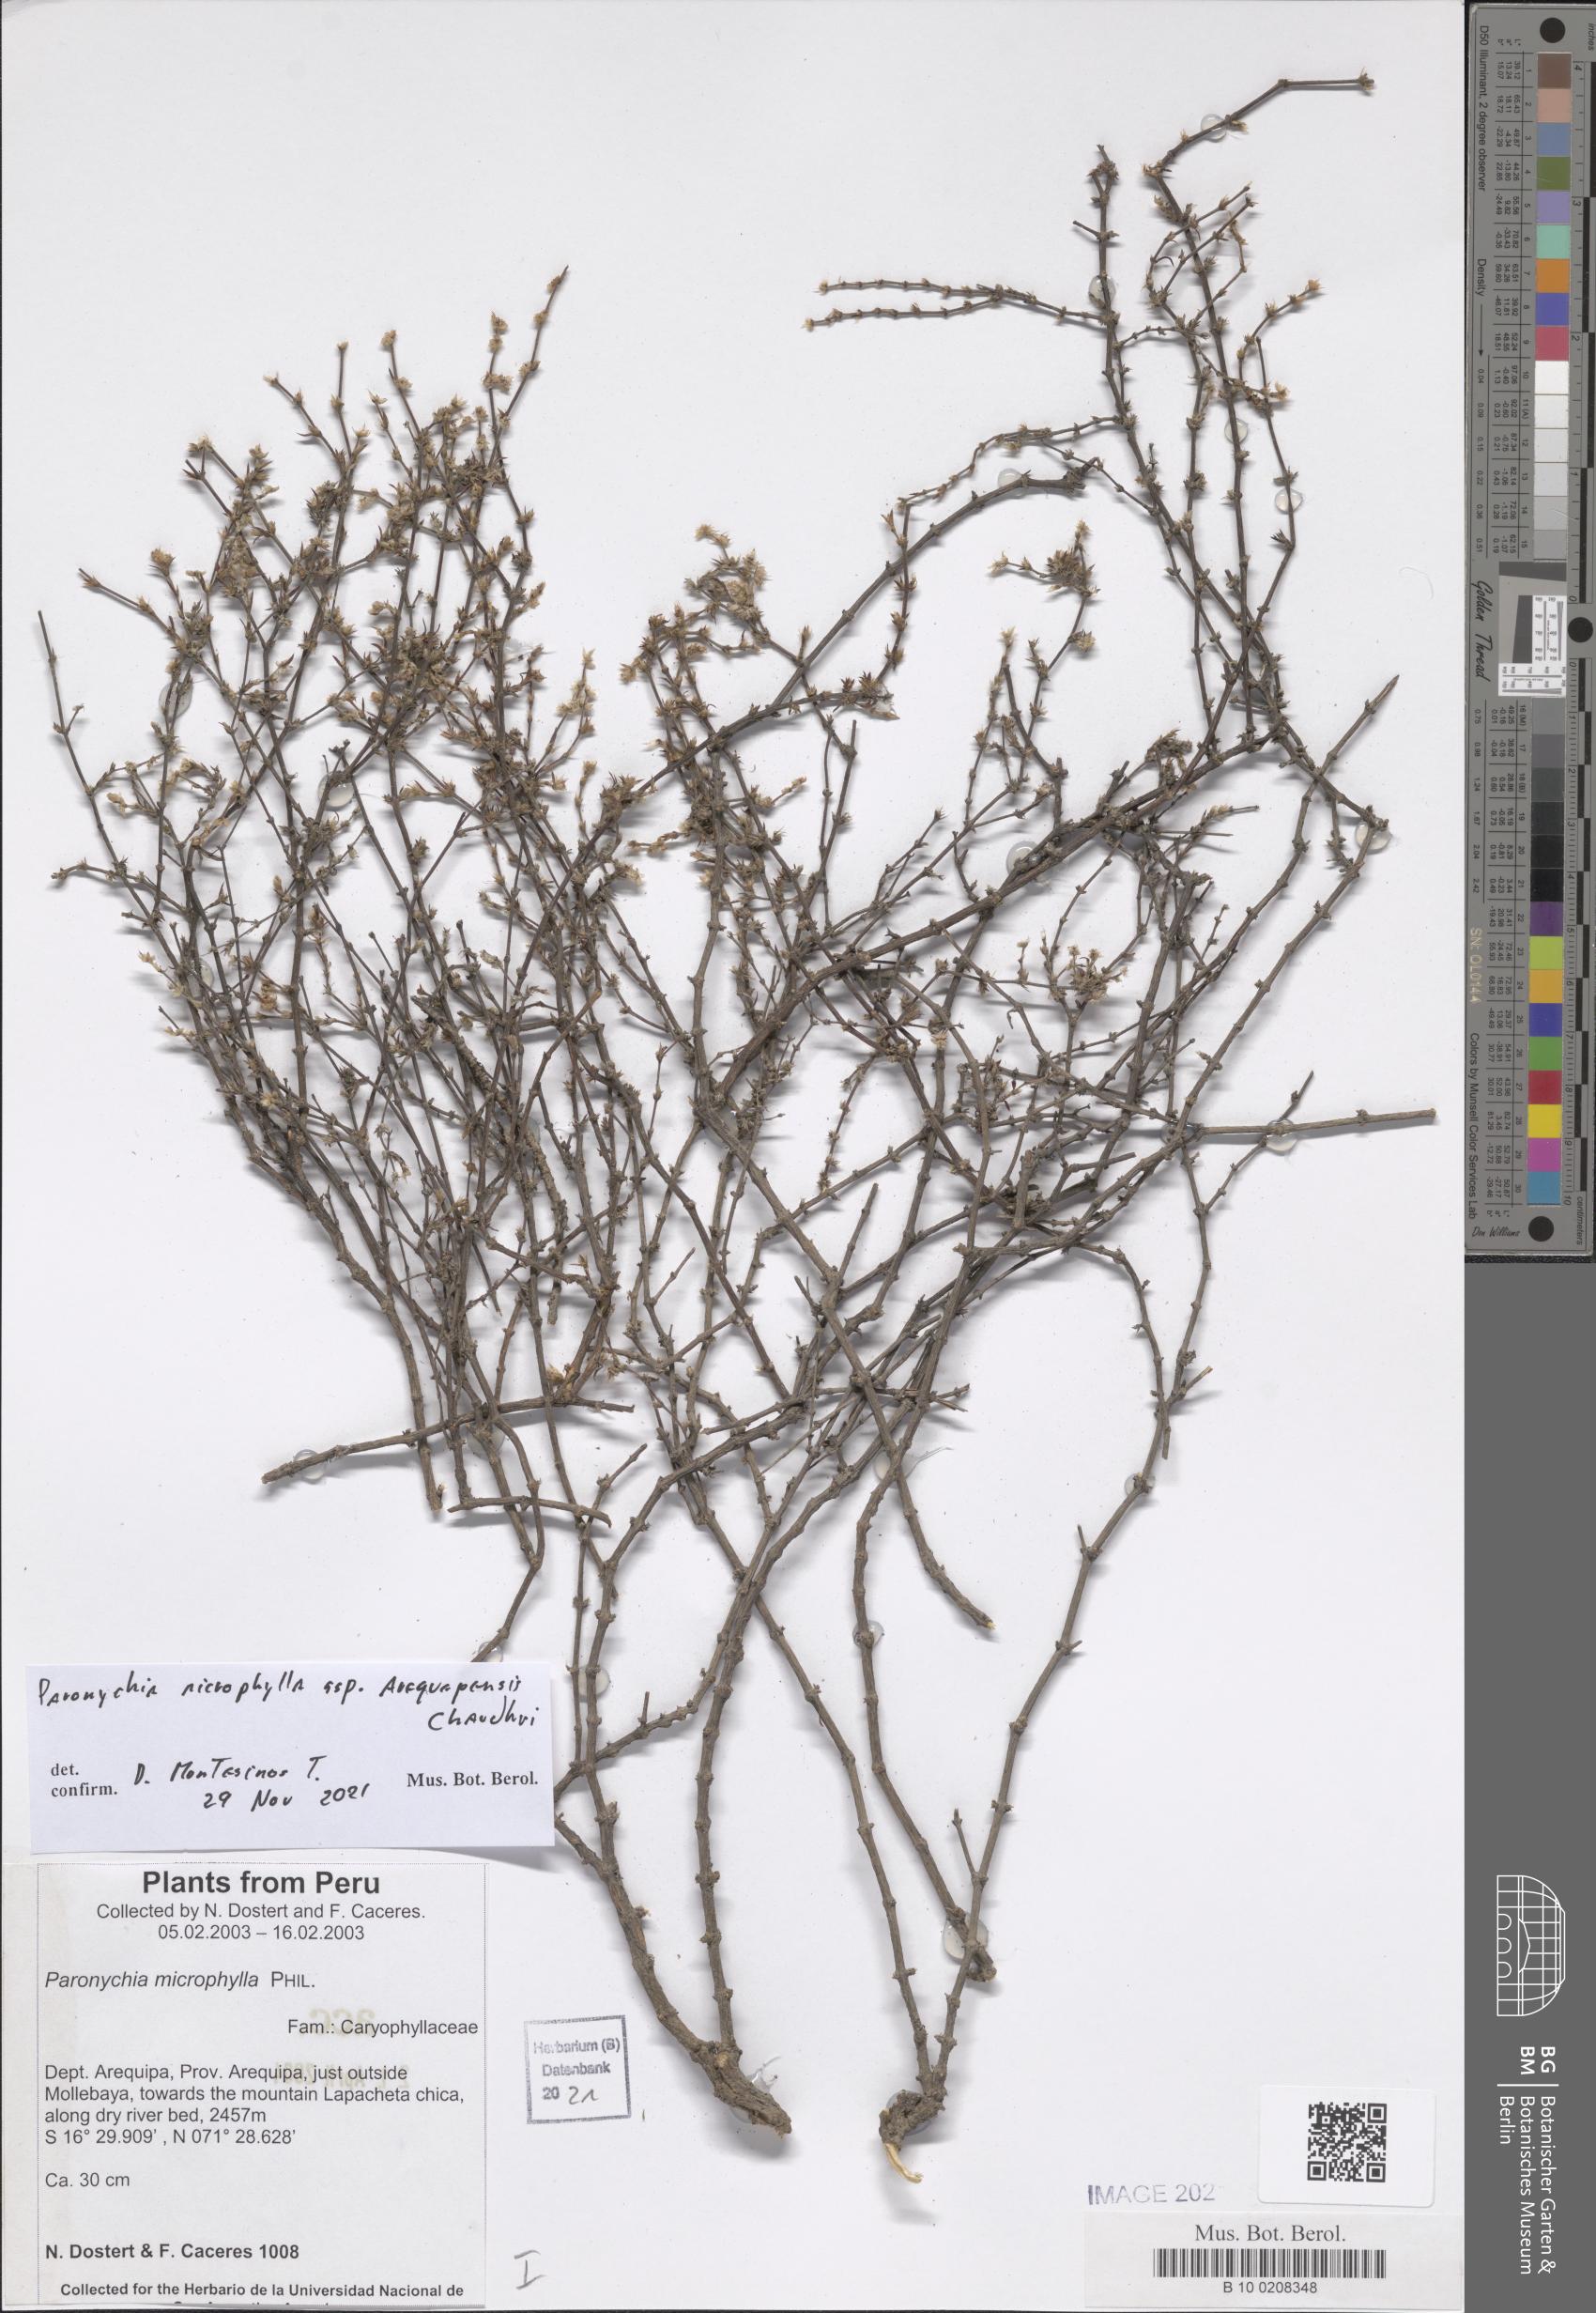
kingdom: Plantae
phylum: Tracheophyta
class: Magnoliopsida
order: Caryophyllales
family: Caryophyllaceae
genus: Paronychia
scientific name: Paronychia
